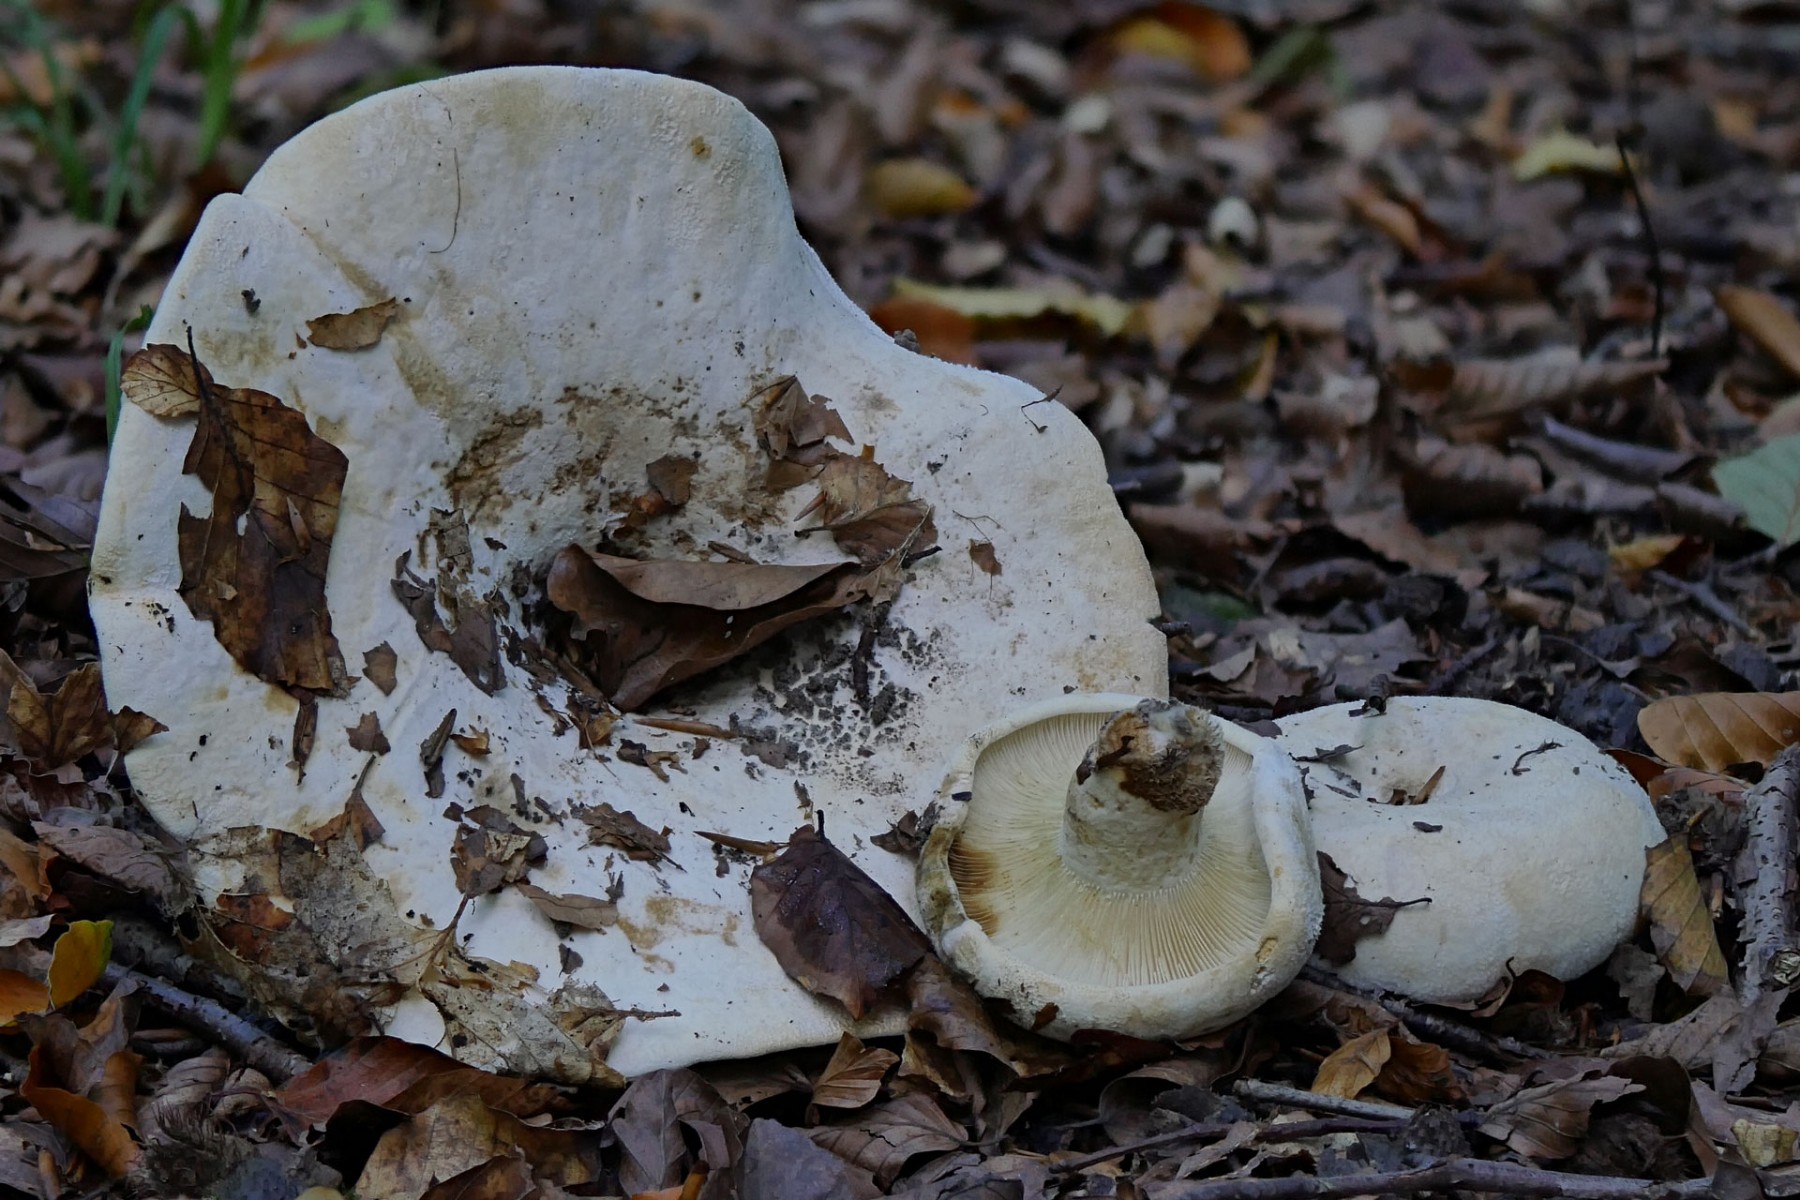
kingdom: Fungi
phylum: Basidiomycota
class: Agaricomycetes
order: Russulales
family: Russulaceae
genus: Lactifluus
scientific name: Lactifluus vellereus
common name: hvidfiltet mælkehat
